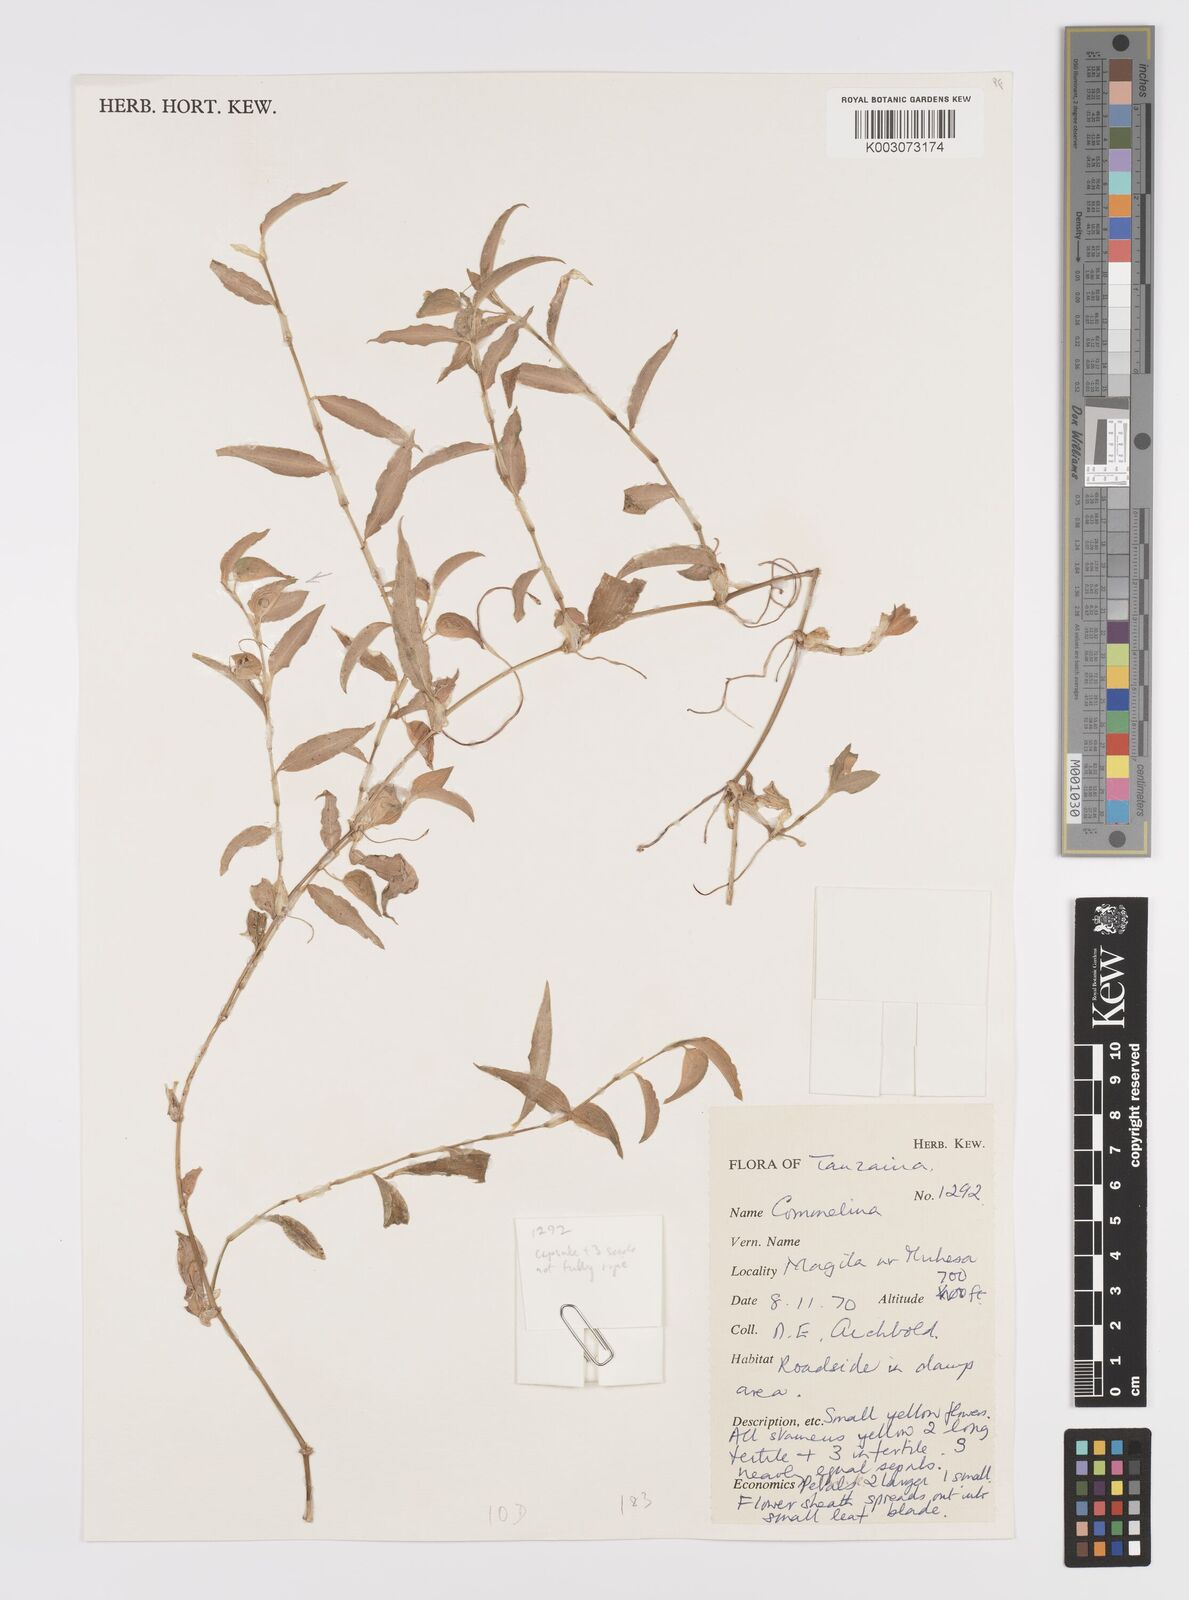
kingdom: Plantae
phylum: Tracheophyta
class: Liliopsida
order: Commelinales
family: Commelinaceae
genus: Commelina
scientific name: Commelina africana
